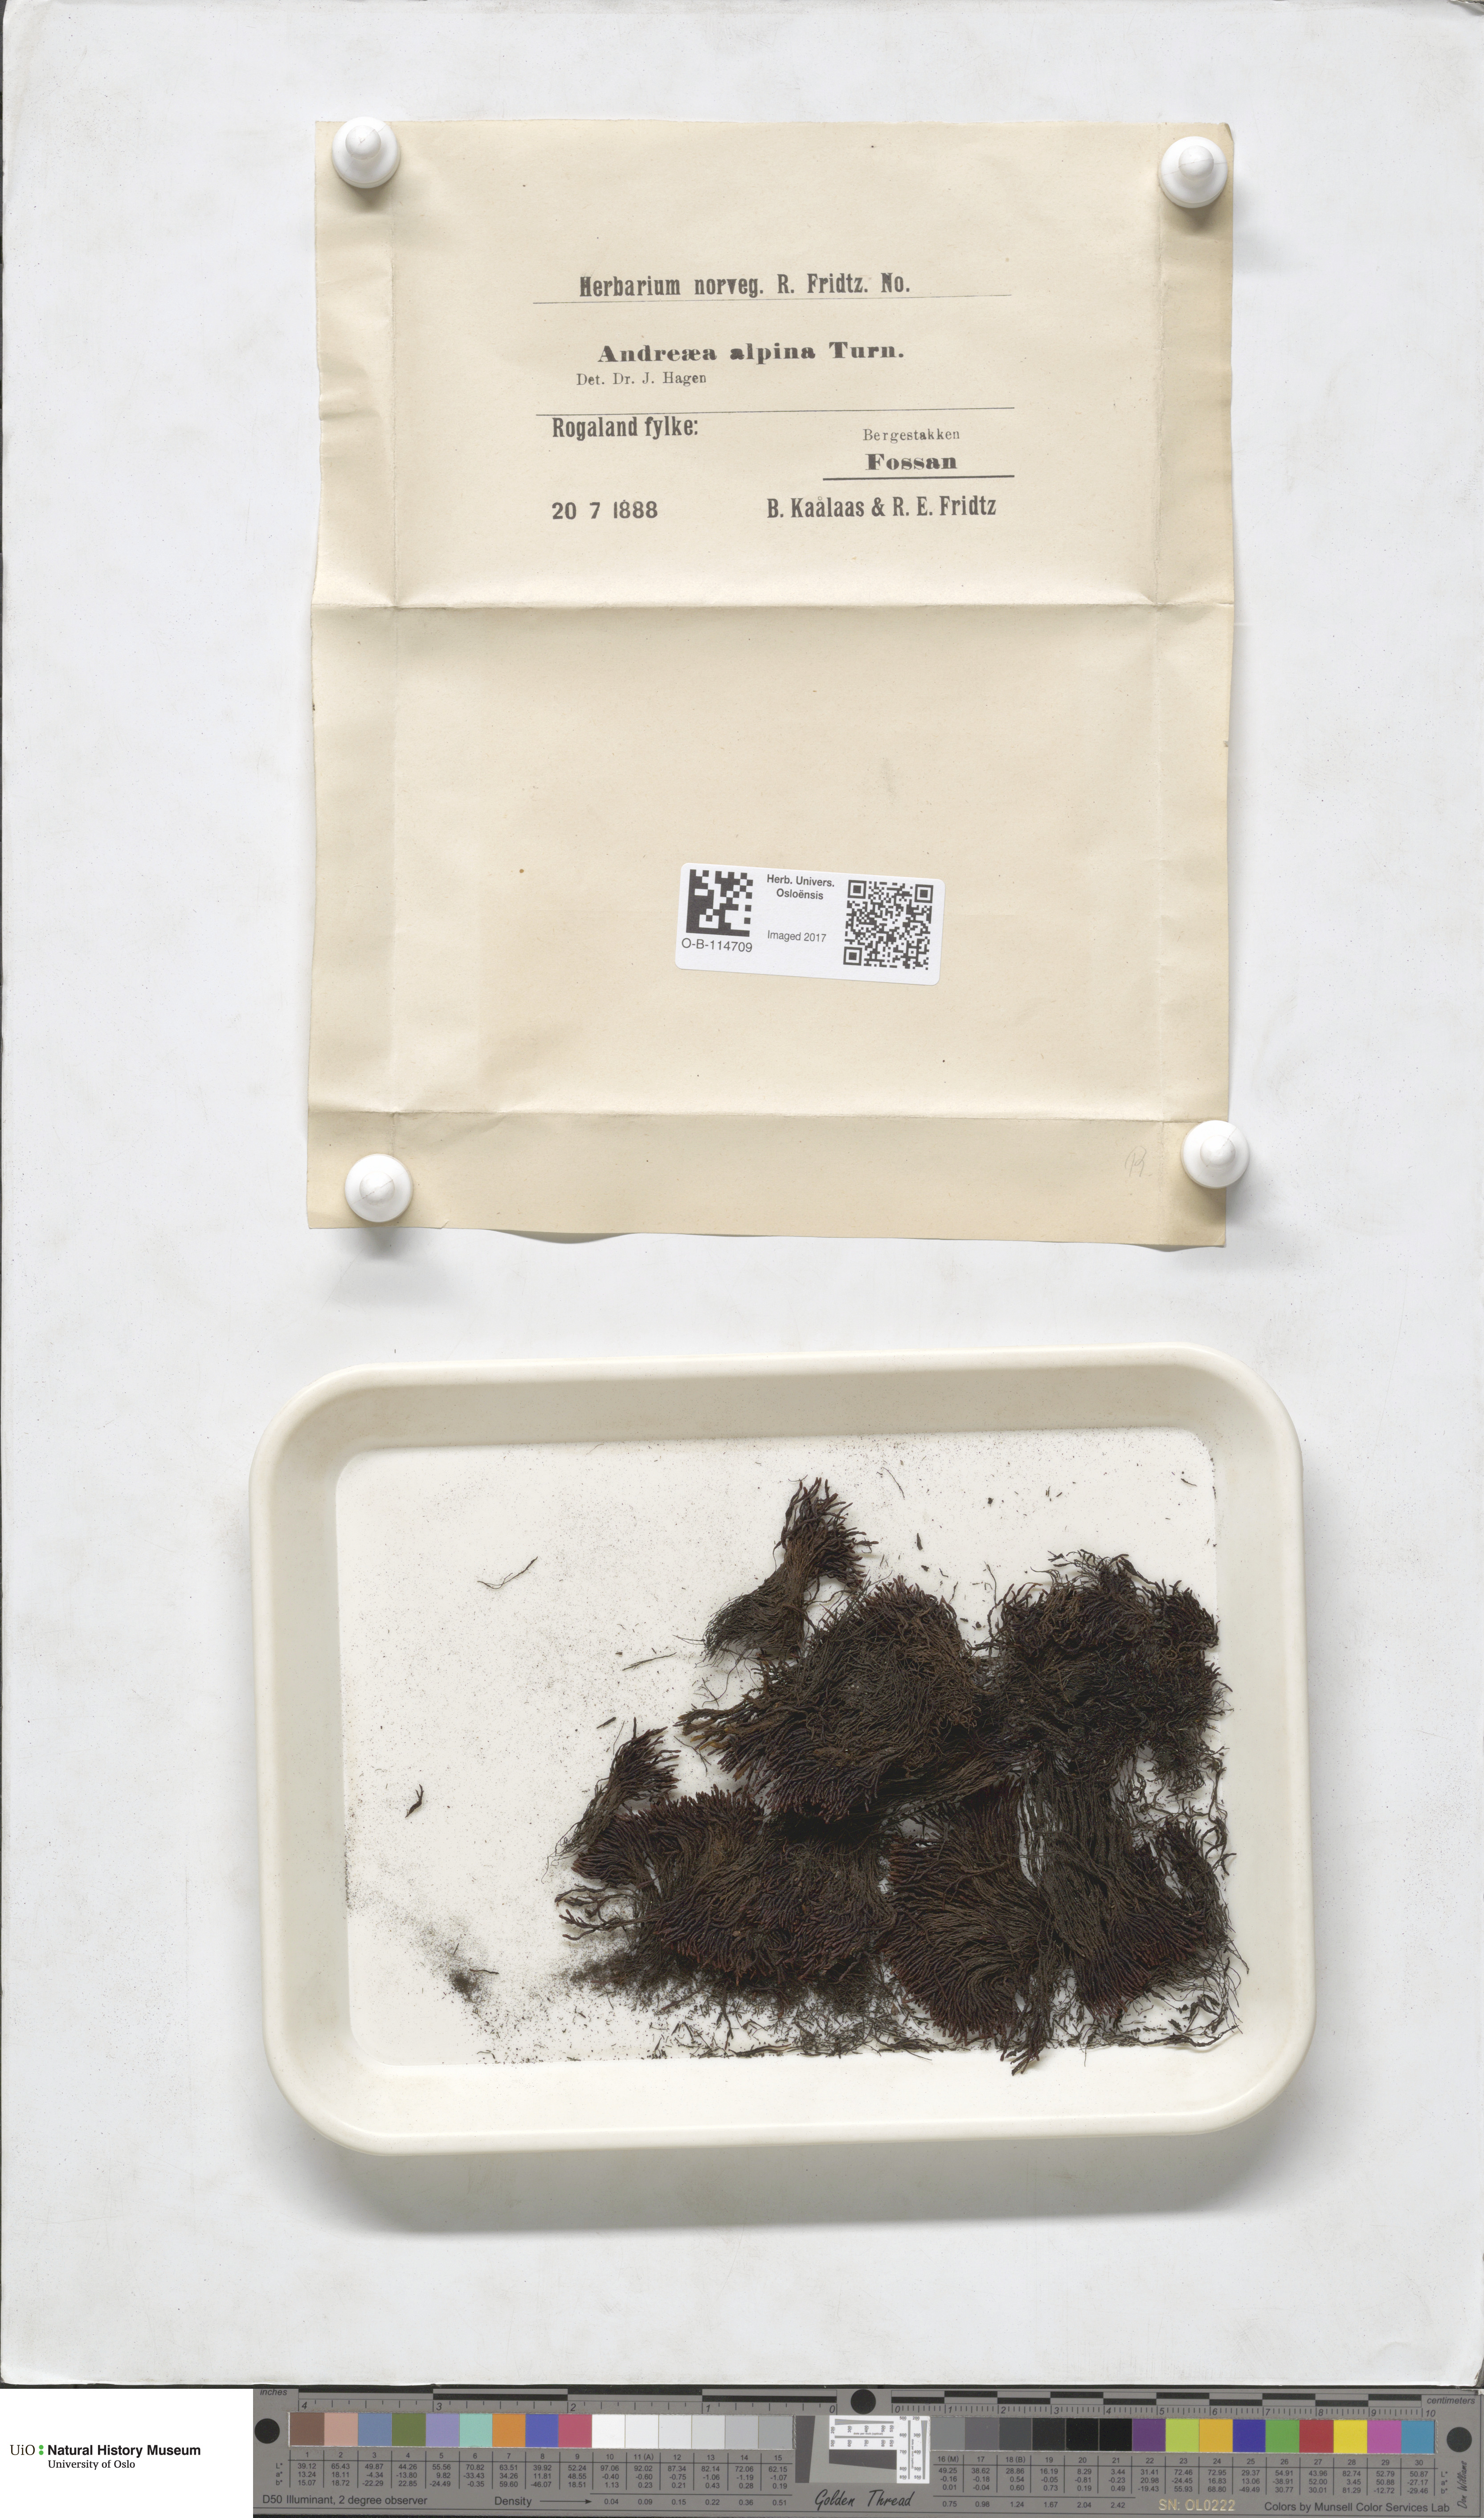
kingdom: Plantae
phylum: Bryophyta
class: Andreaeopsida
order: Andreaeales
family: Andreaeaceae
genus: Andreaea
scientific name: Andreaea hookeri
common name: Alpine rock-moss
